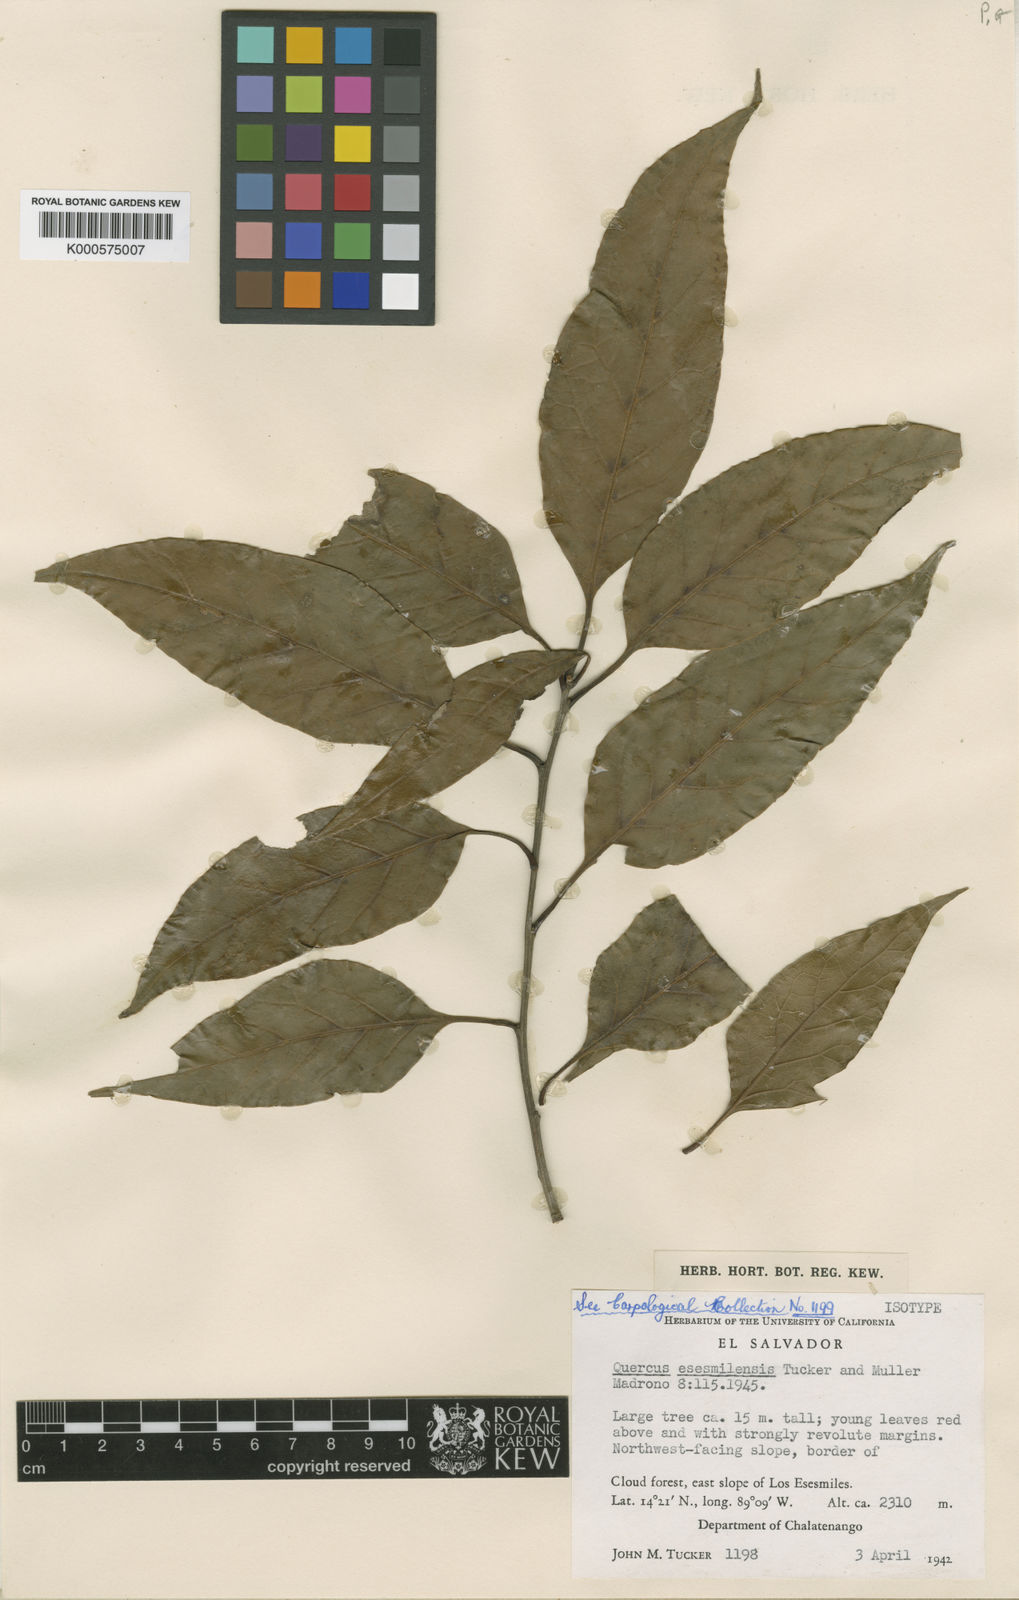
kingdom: Plantae
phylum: Tracheophyta
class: Magnoliopsida
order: Fagales
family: Fagaceae
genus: Quercus
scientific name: Quercus laurina
